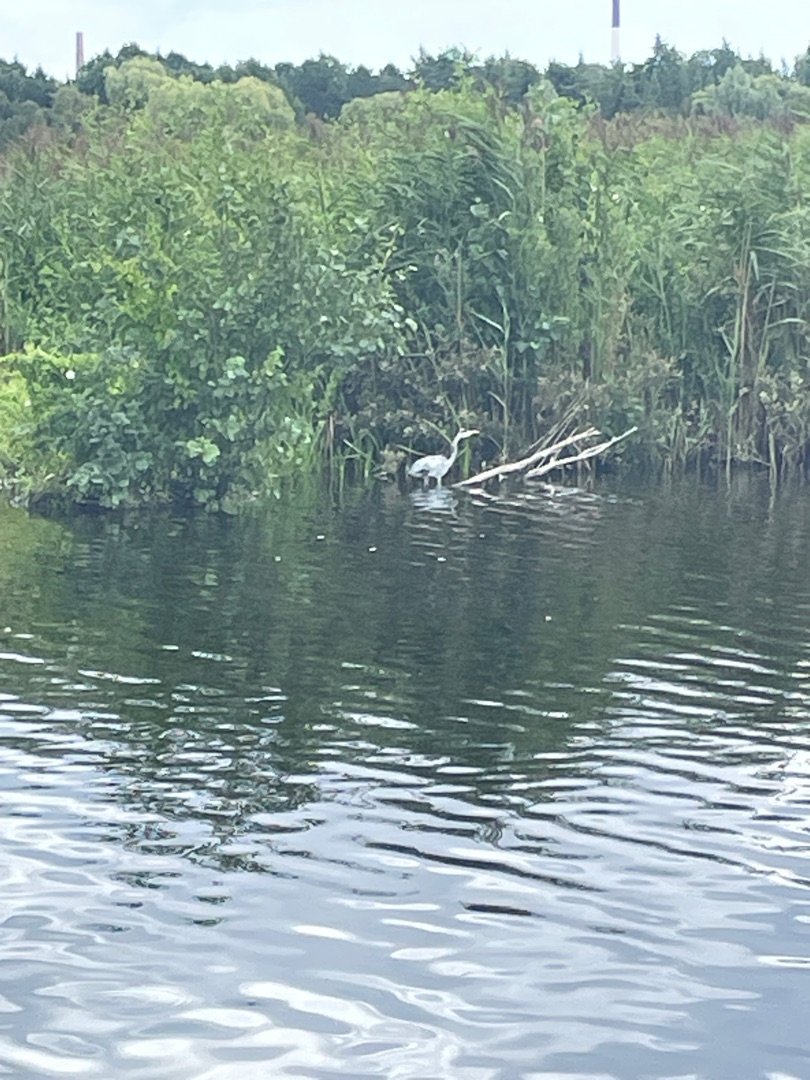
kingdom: Animalia
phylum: Chordata
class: Aves
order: Pelecaniformes
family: Ardeidae
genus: Ardea
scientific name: Ardea cinerea
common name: Fiskehejre
